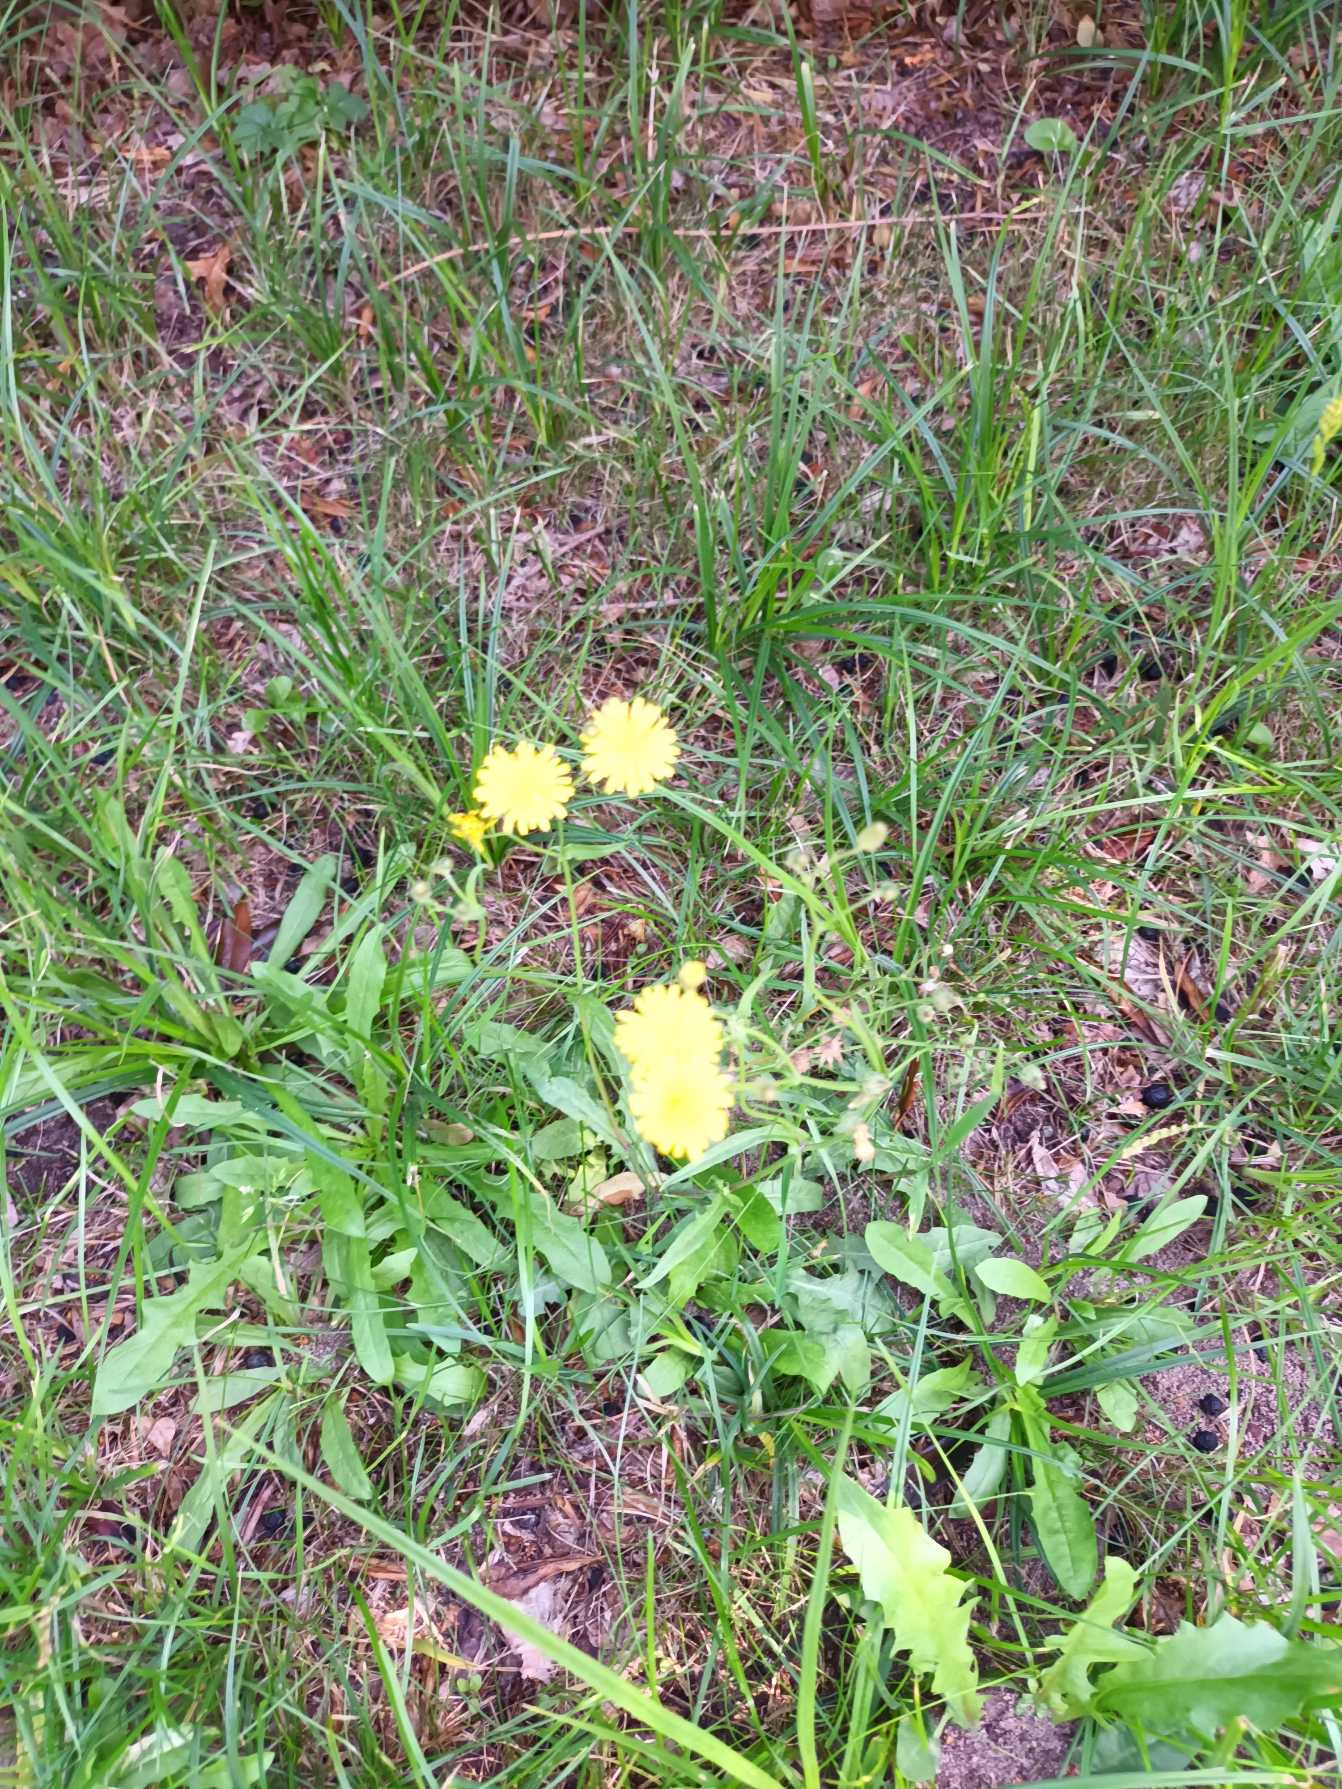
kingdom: Plantae
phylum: Tracheophyta
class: Magnoliopsida
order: Asterales
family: Asteraceae
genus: Crepis
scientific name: Crepis capillaris
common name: Grøn høgeskæg
